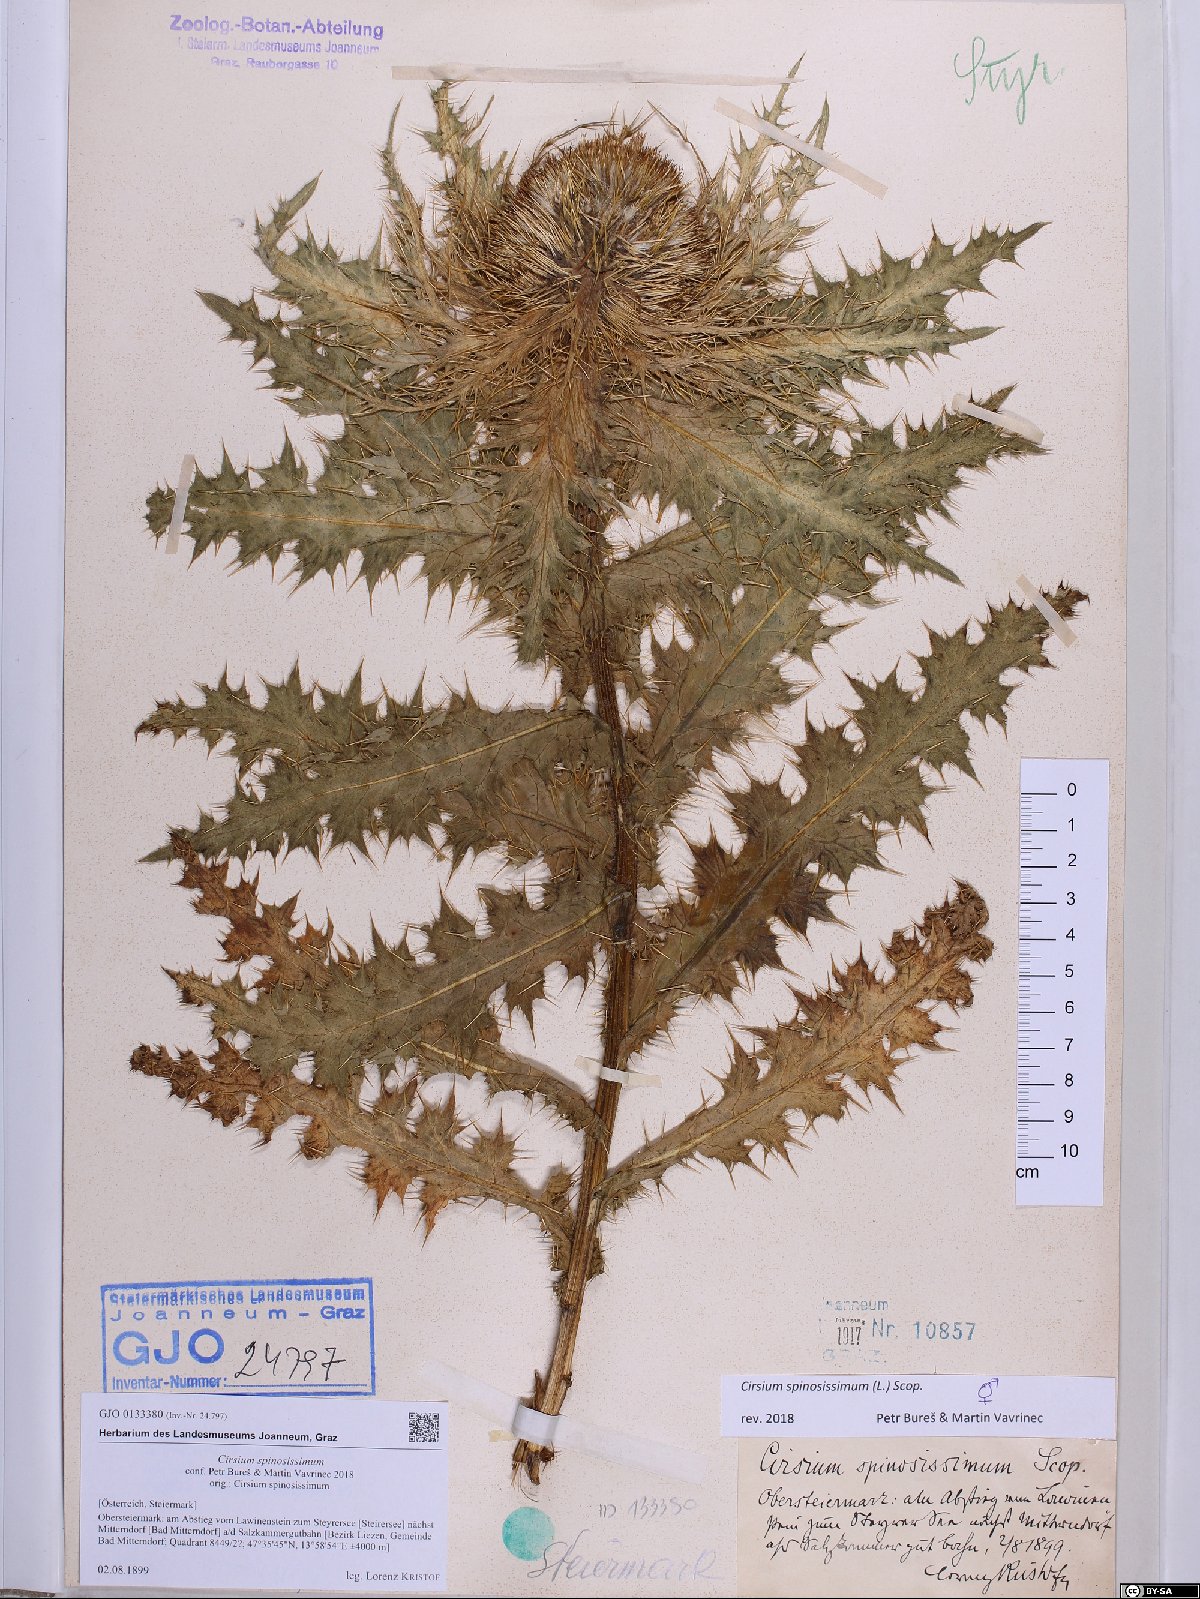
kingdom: Plantae
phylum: Tracheophyta
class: Magnoliopsida
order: Asterales
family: Asteraceae
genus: Cirsium
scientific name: Cirsium spinosissimum
